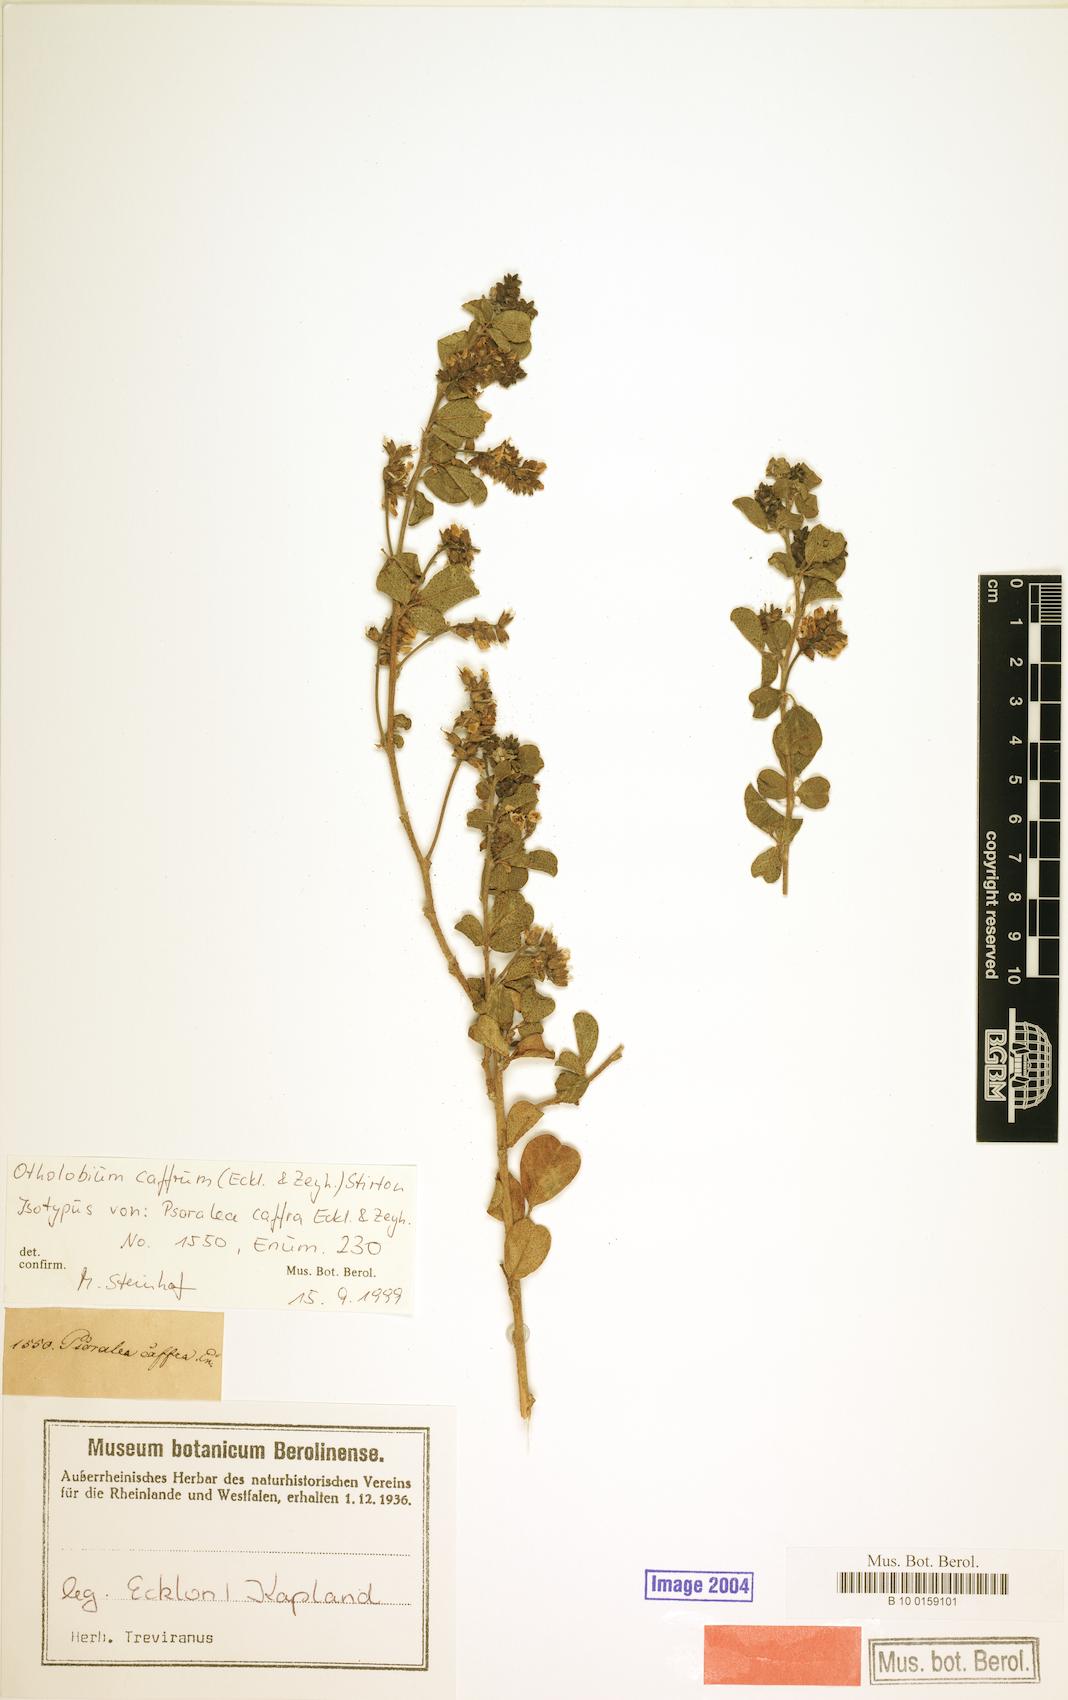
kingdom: Plantae
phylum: Tracheophyta
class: Magnoliopsida
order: Fabales
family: Fabaceae
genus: Psoralea
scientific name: Psoralea caffra
